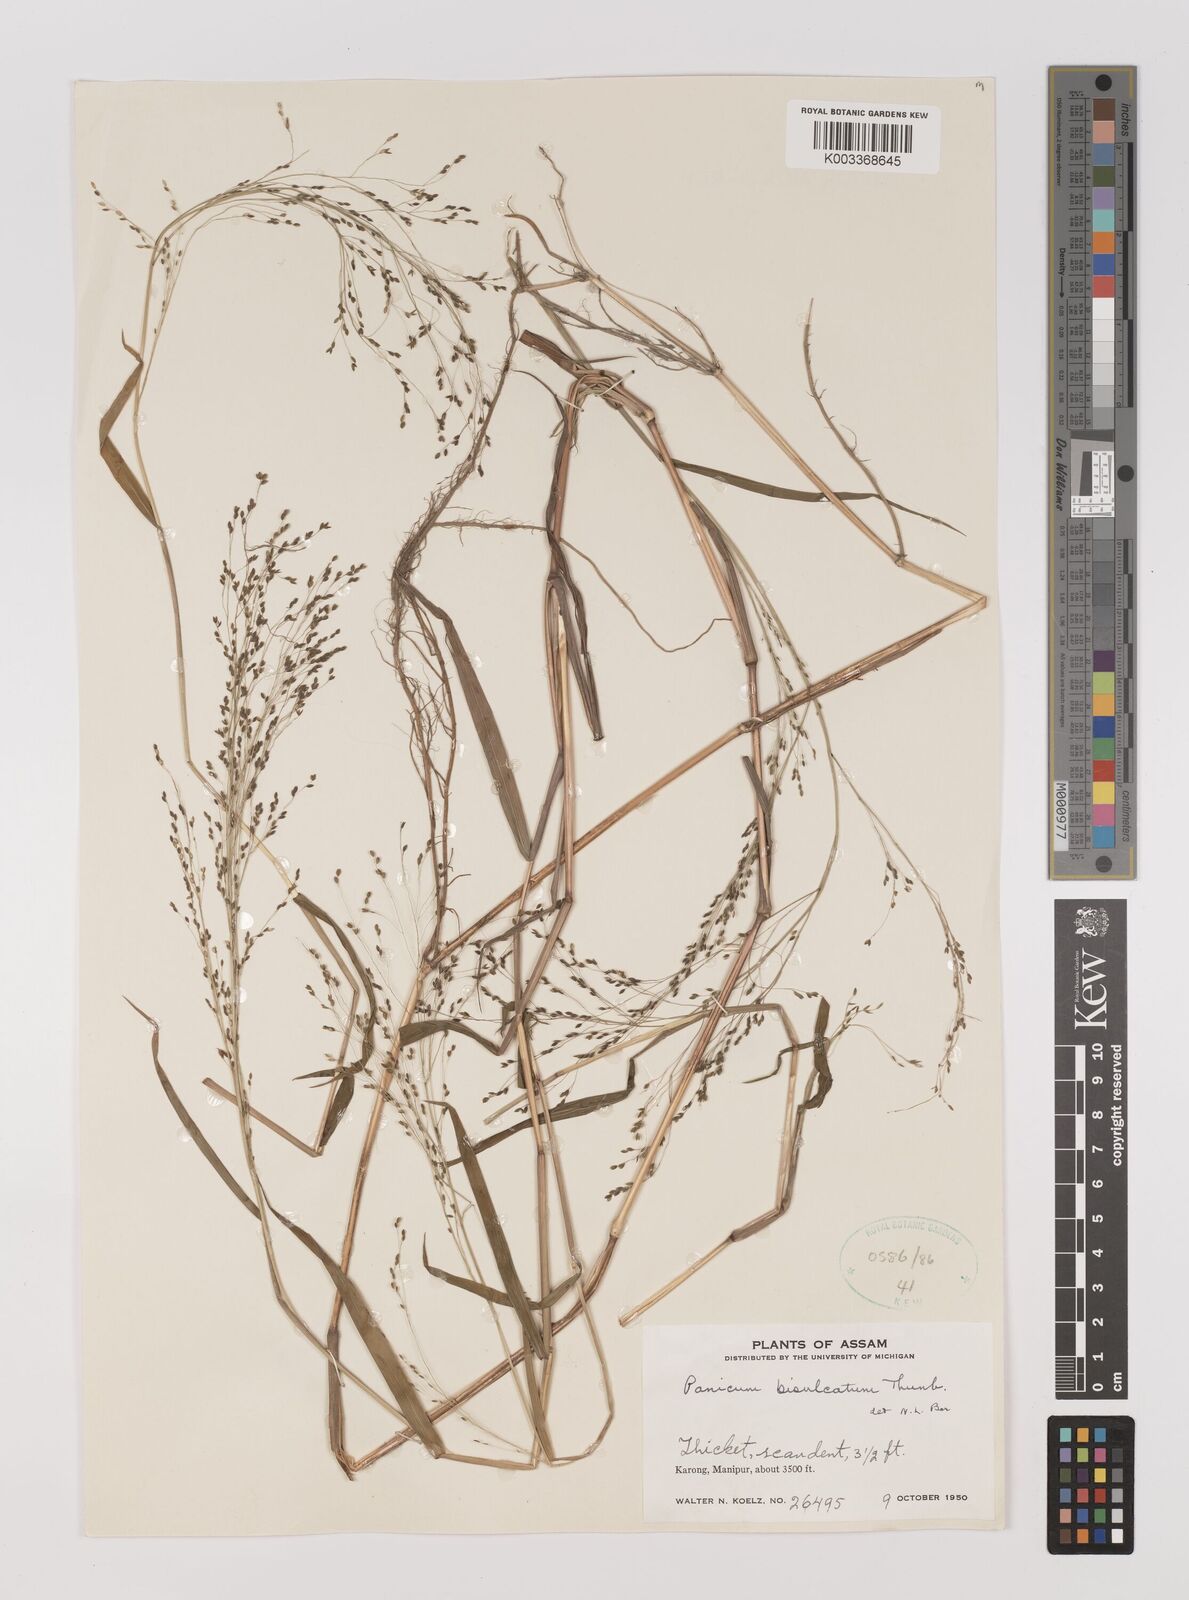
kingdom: Plantae
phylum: Tracheophyta
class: Liliopsida
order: Poales
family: Poaceae
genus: Panicum
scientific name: Panicum bisulcatum
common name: Japanese panicgrass
